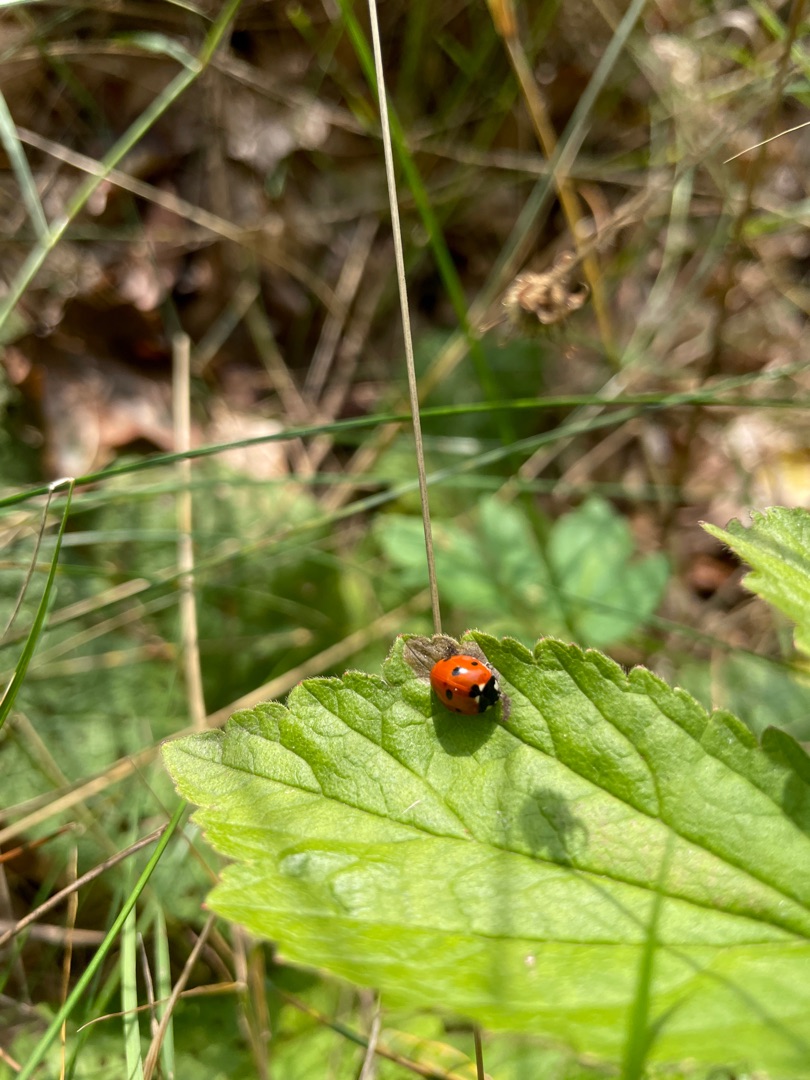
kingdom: Animalia
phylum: Arthropoda
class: Insecta
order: Coleoptera
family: Coccinellidae
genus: Coccinella
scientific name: Coccinella septempunctata
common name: Syvplettet mariehøne
